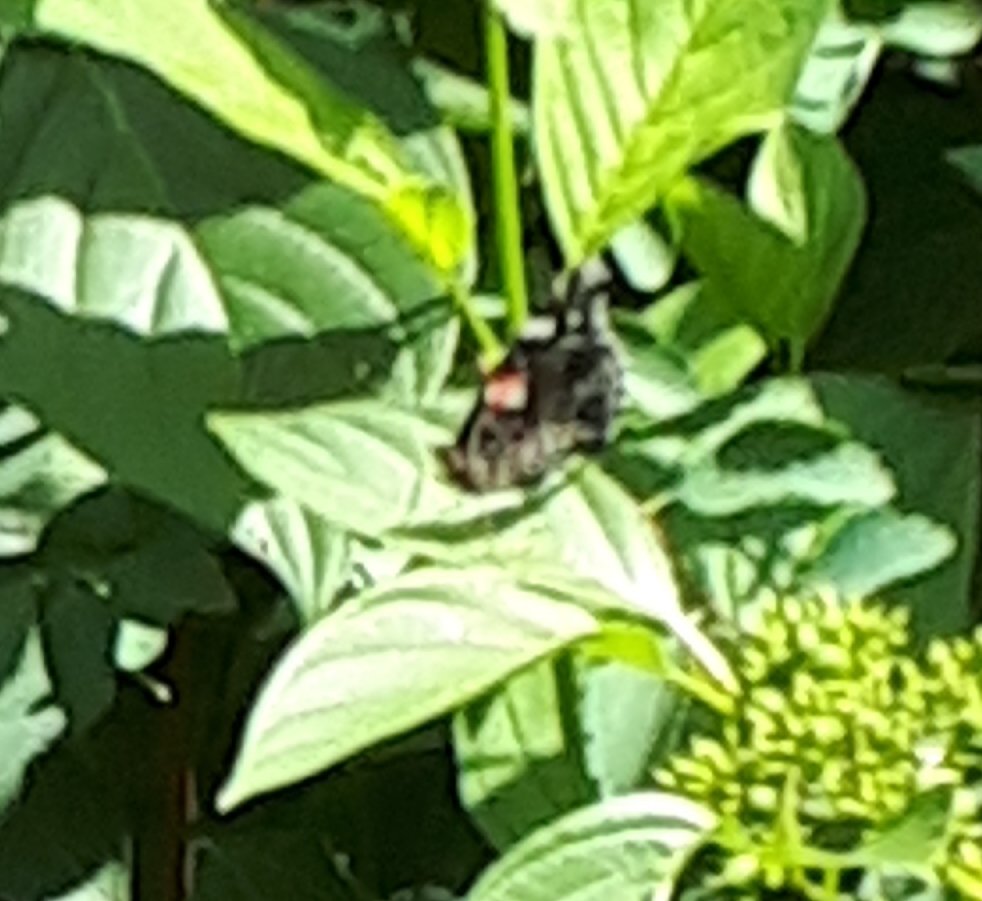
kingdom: Animalia
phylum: Arthropoda
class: Insecta
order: Lepidoptera
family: Nymphalidae
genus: Vanessa
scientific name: Vanessa atalanta
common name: Red Admiral
